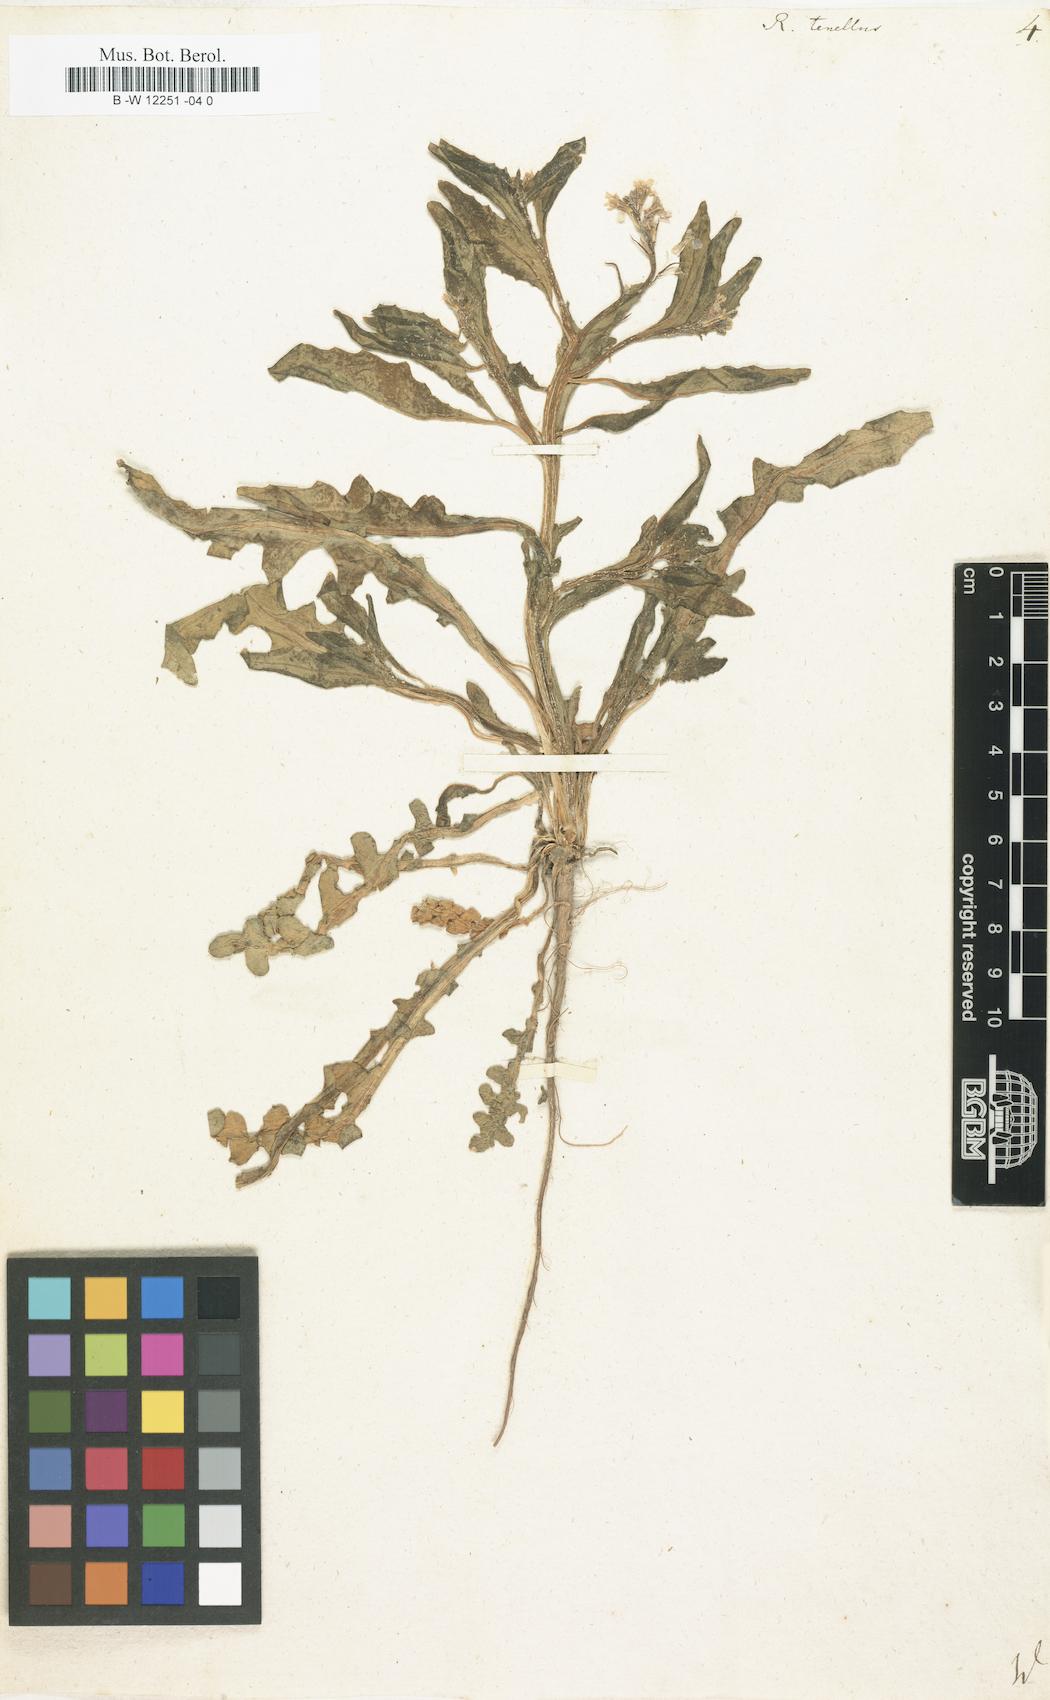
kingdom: Plantae
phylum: Tracheophyta
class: Magnoliopsida
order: Brassicales
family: Brassicaceae
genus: Chorispora
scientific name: Chorispora tenella
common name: Crossflower
